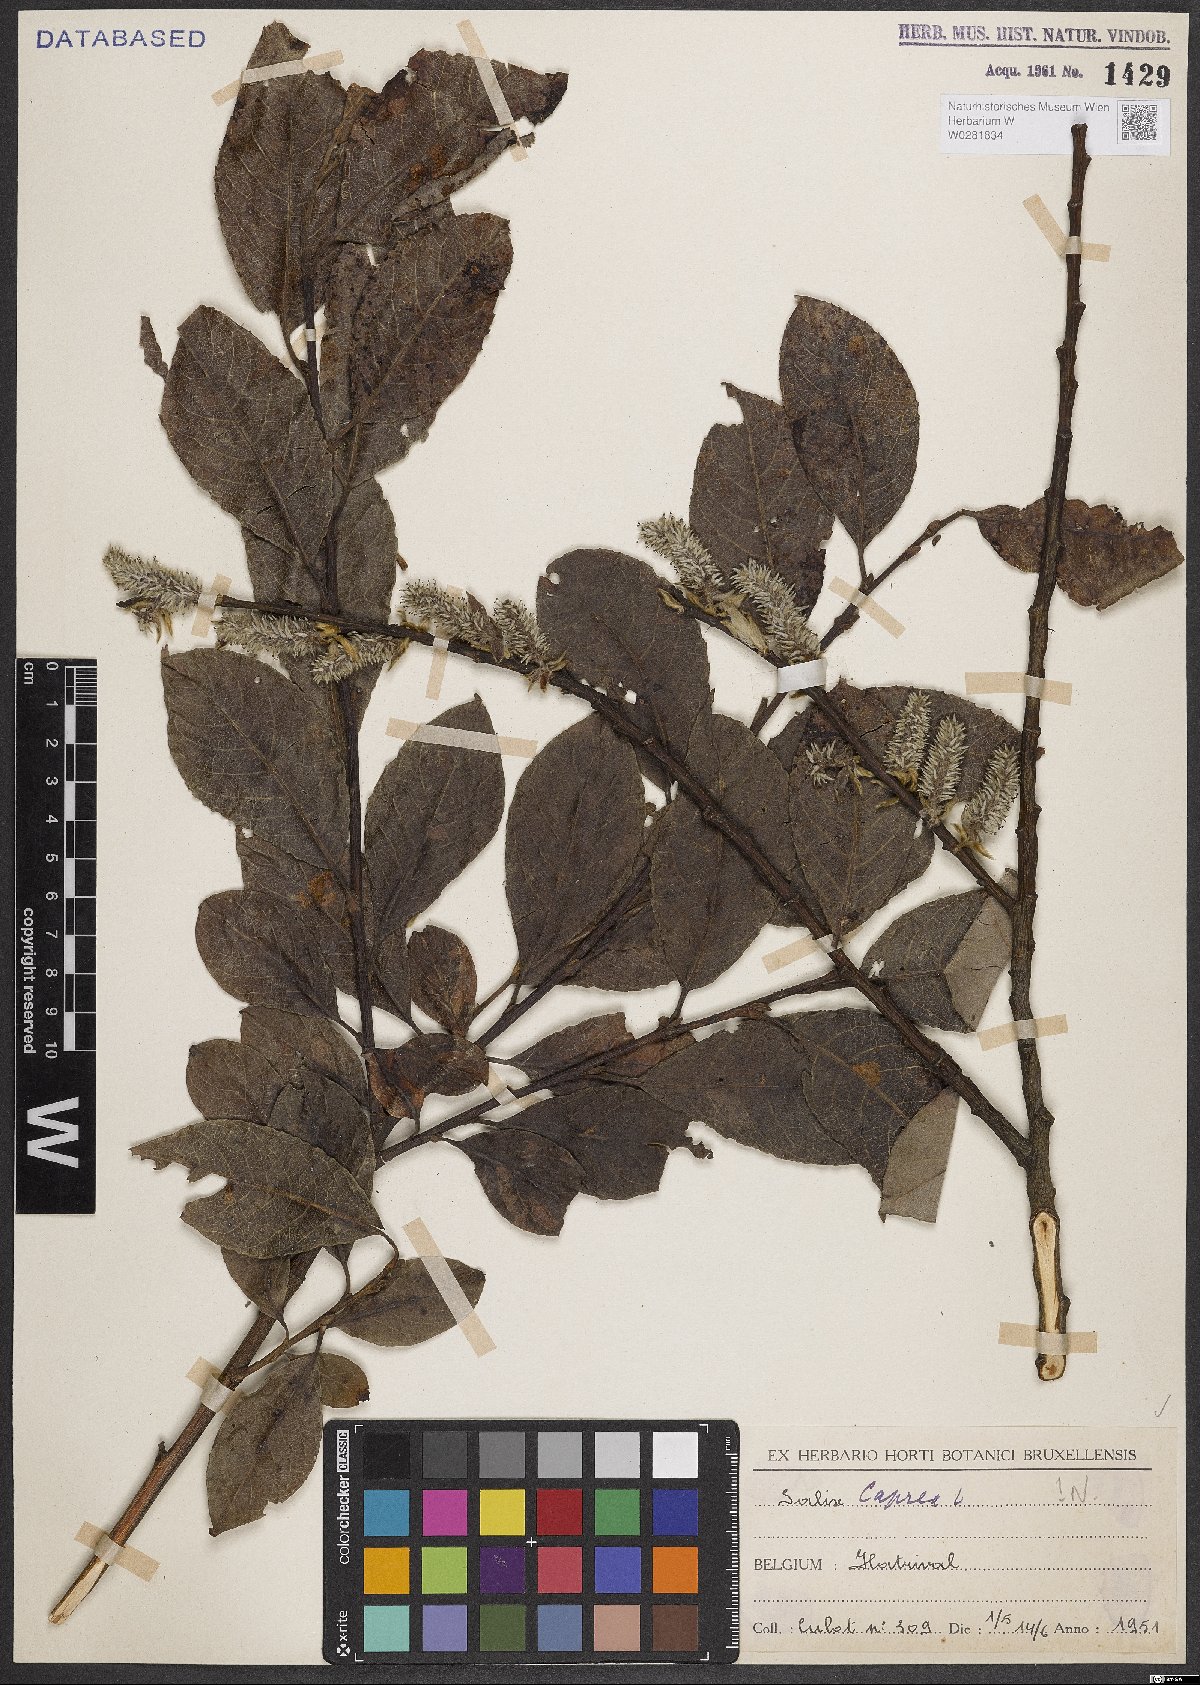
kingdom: Plantae
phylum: Tracheophyta
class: Magnoliopsida
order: Malpighiales
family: Salicaceae
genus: Salix
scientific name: Salix caprea
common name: Goat willow
